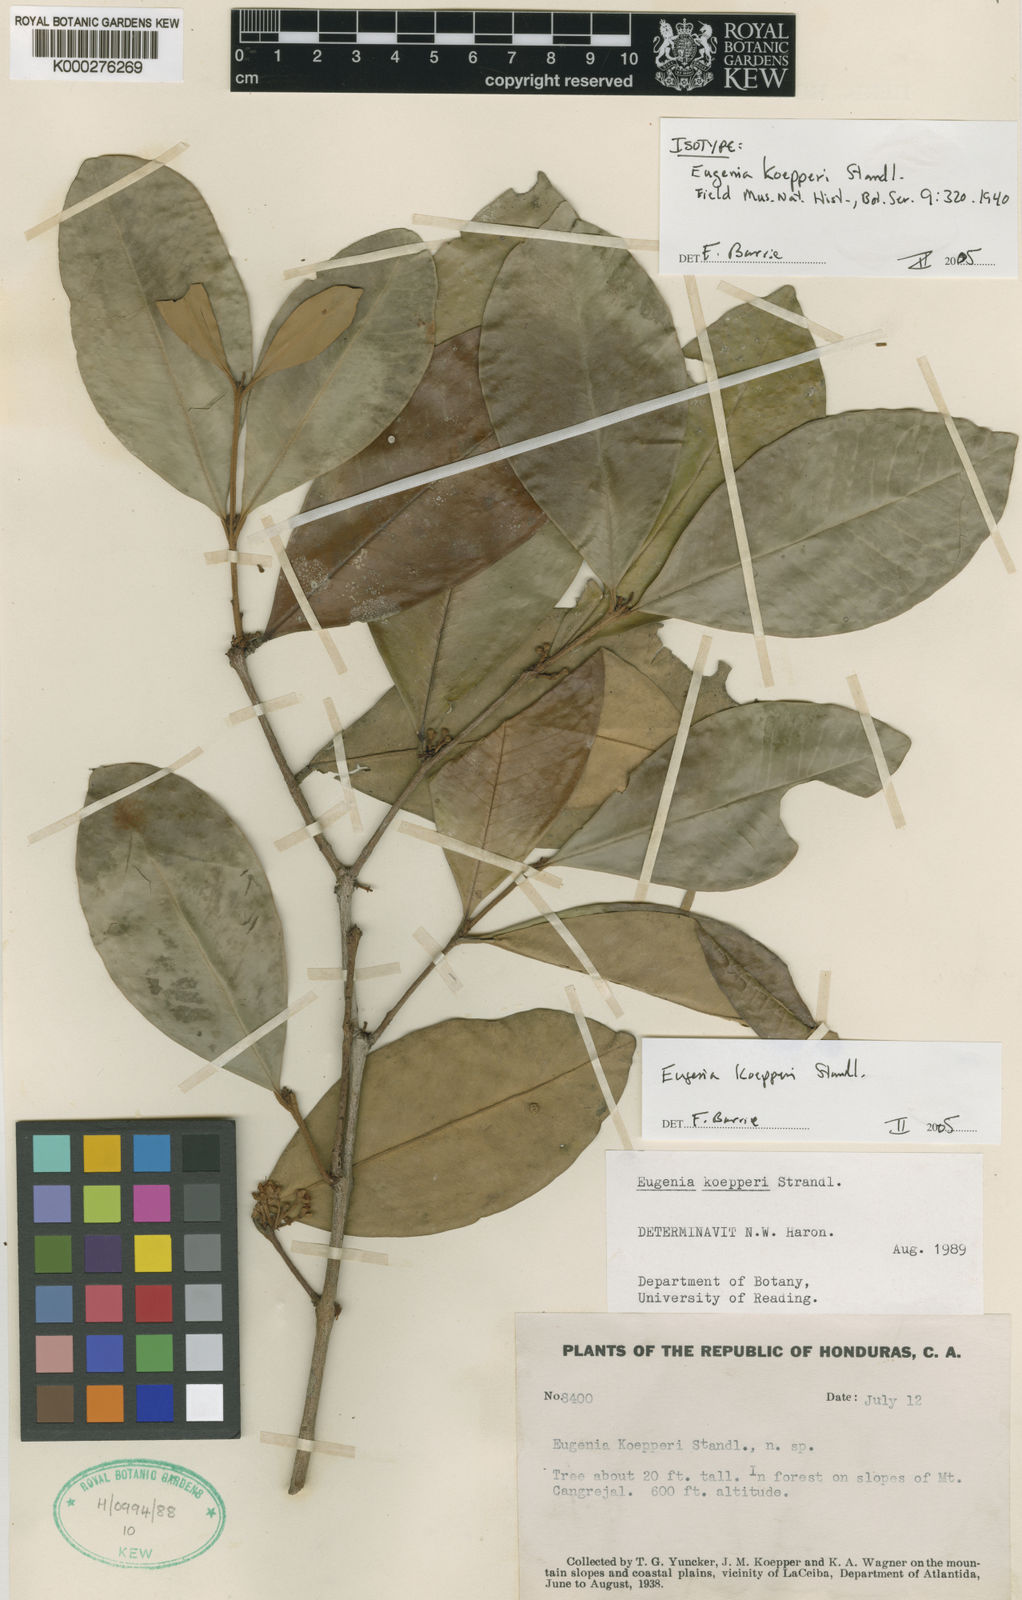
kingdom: Plantae
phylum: Tracheophyta
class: Magnoliopsida
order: Myrtales
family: Myrtaceae
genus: Eugenia
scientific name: Eugenia koepperi
